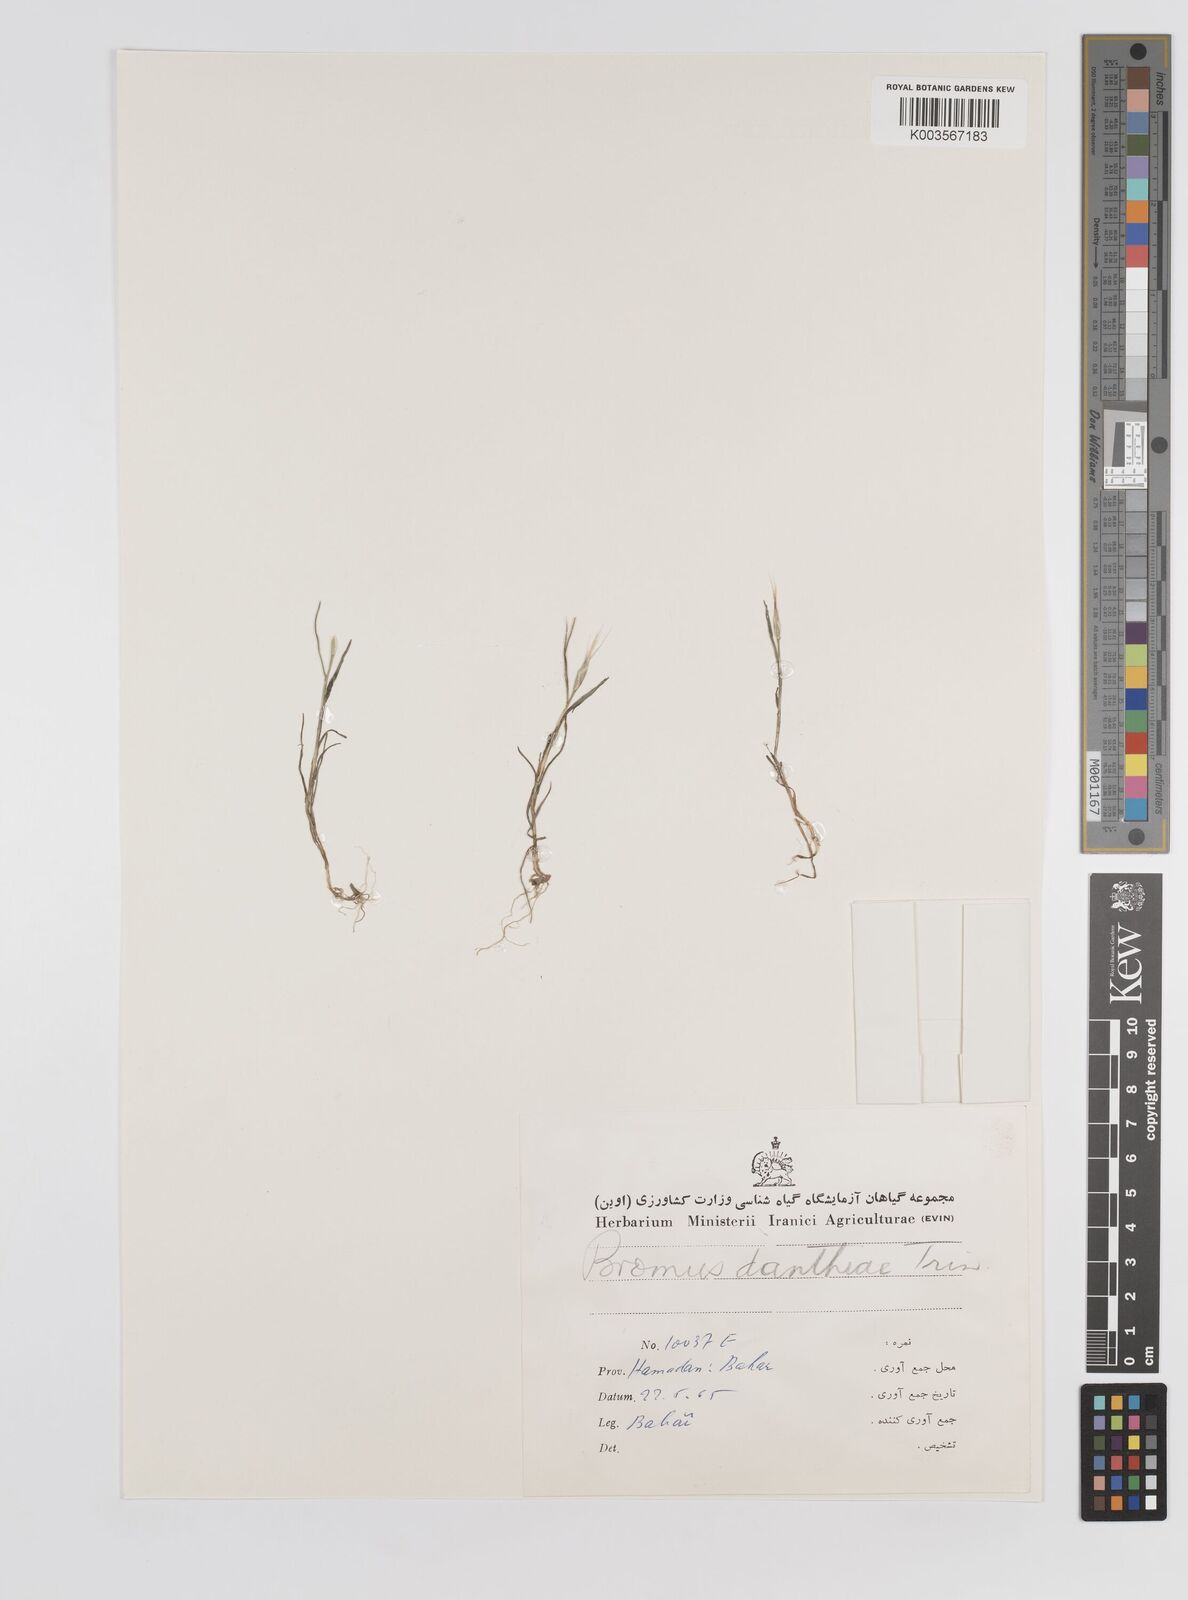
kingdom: Plantae
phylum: Tracheophyta
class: Liliopsida
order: Poales
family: Poaceae
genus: Bromus
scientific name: Bromus danthoniae
